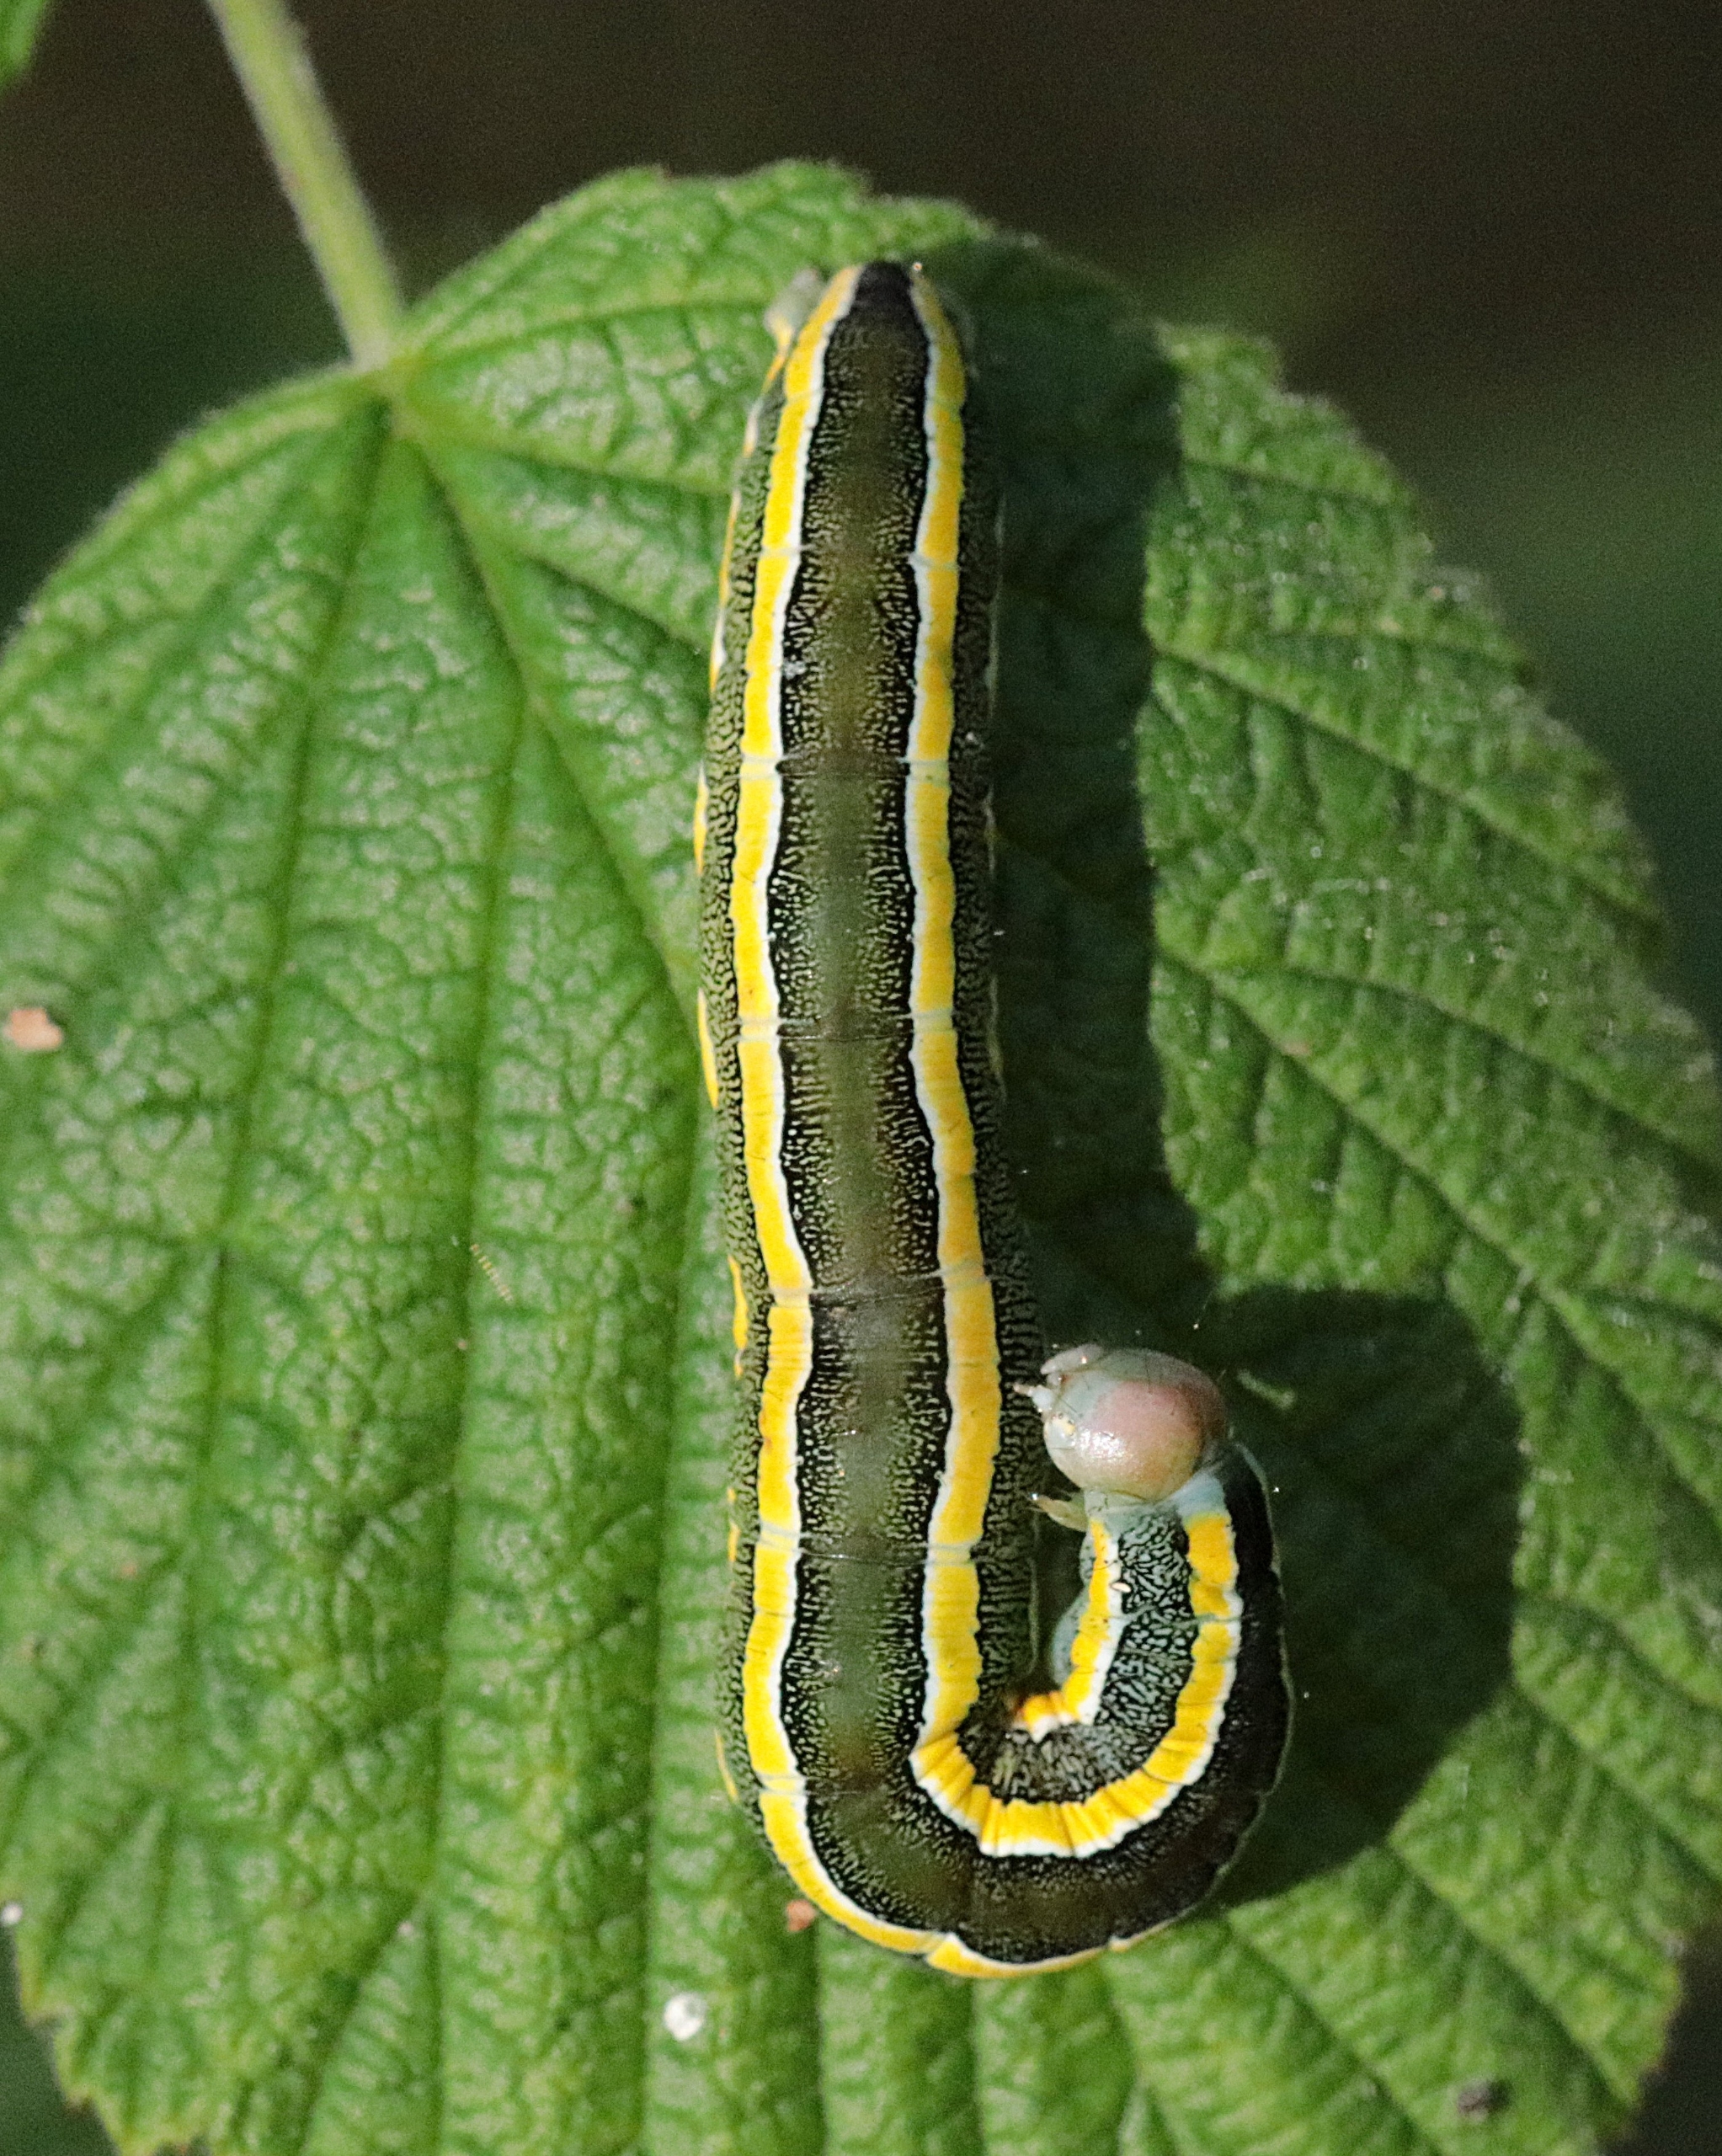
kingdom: Animalia
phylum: Arthropoda
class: Insecta
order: Lepidoptera
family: Noctuidae
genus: Ceramica
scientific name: Ceramica pisi
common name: Ærteugle
